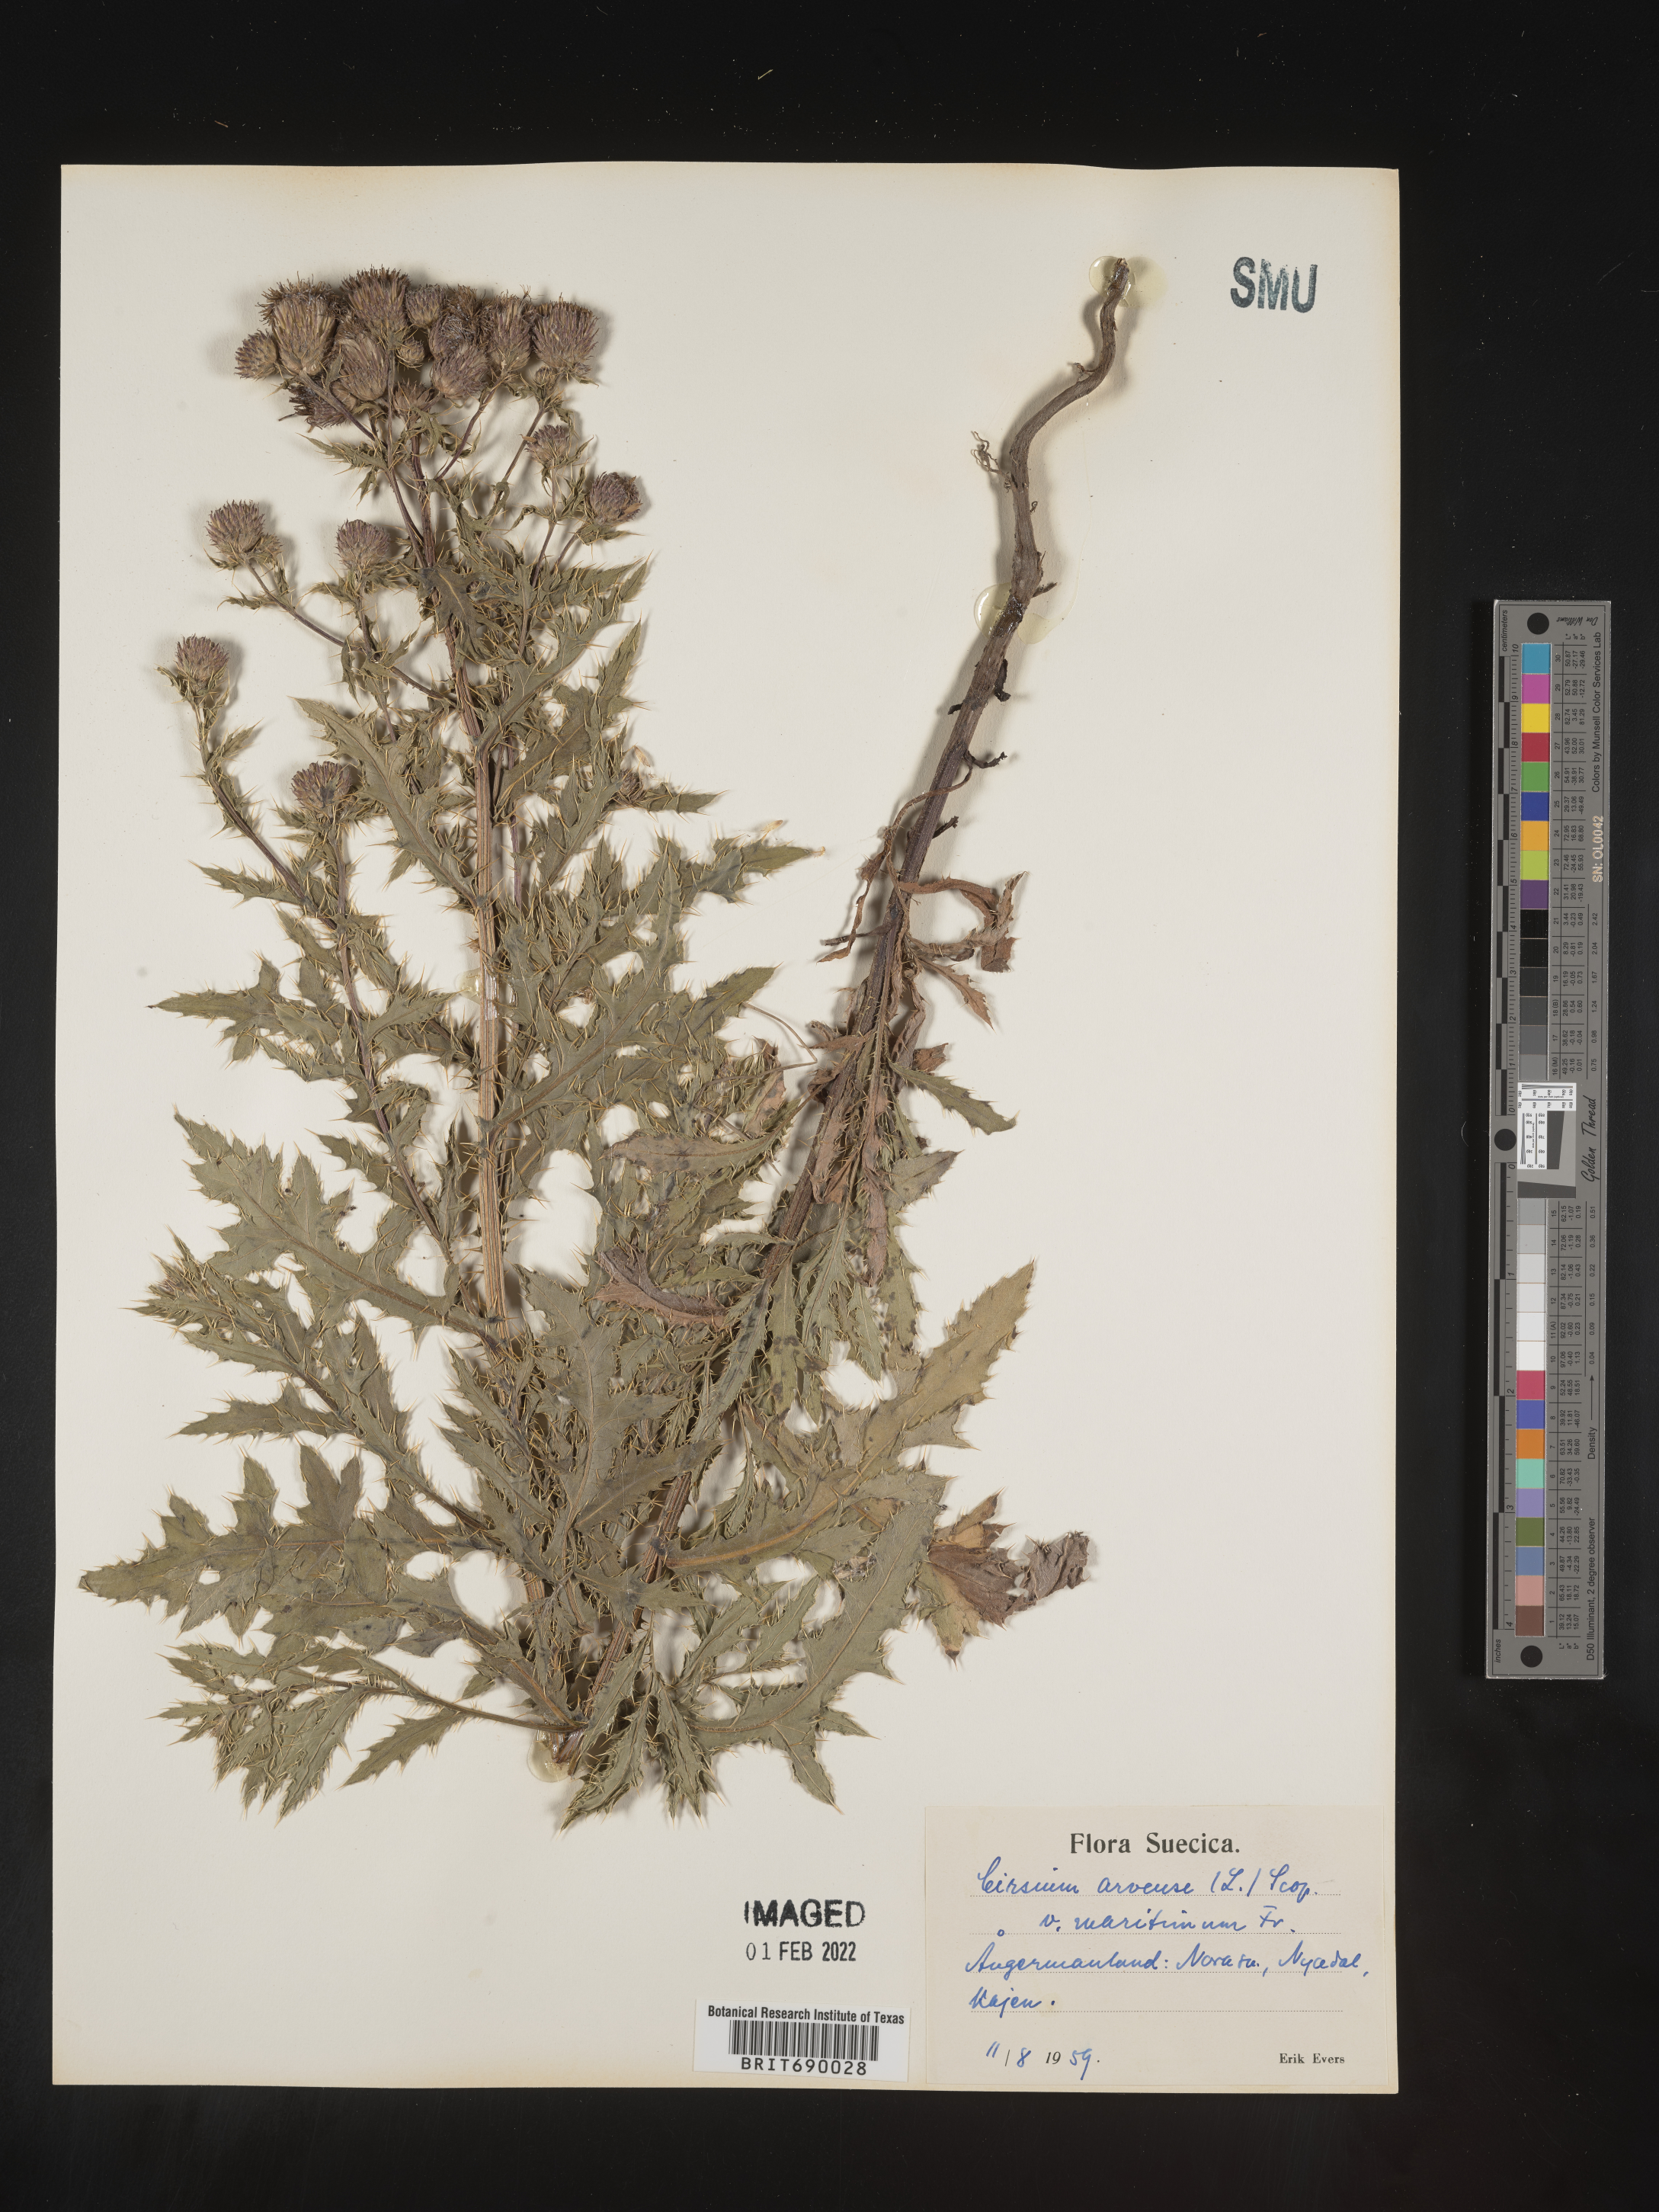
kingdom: Plantae
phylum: Tracheophyta
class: Magnoliopsida
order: Asterales
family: Asteraceae
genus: Cirsium
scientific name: Cirsium
